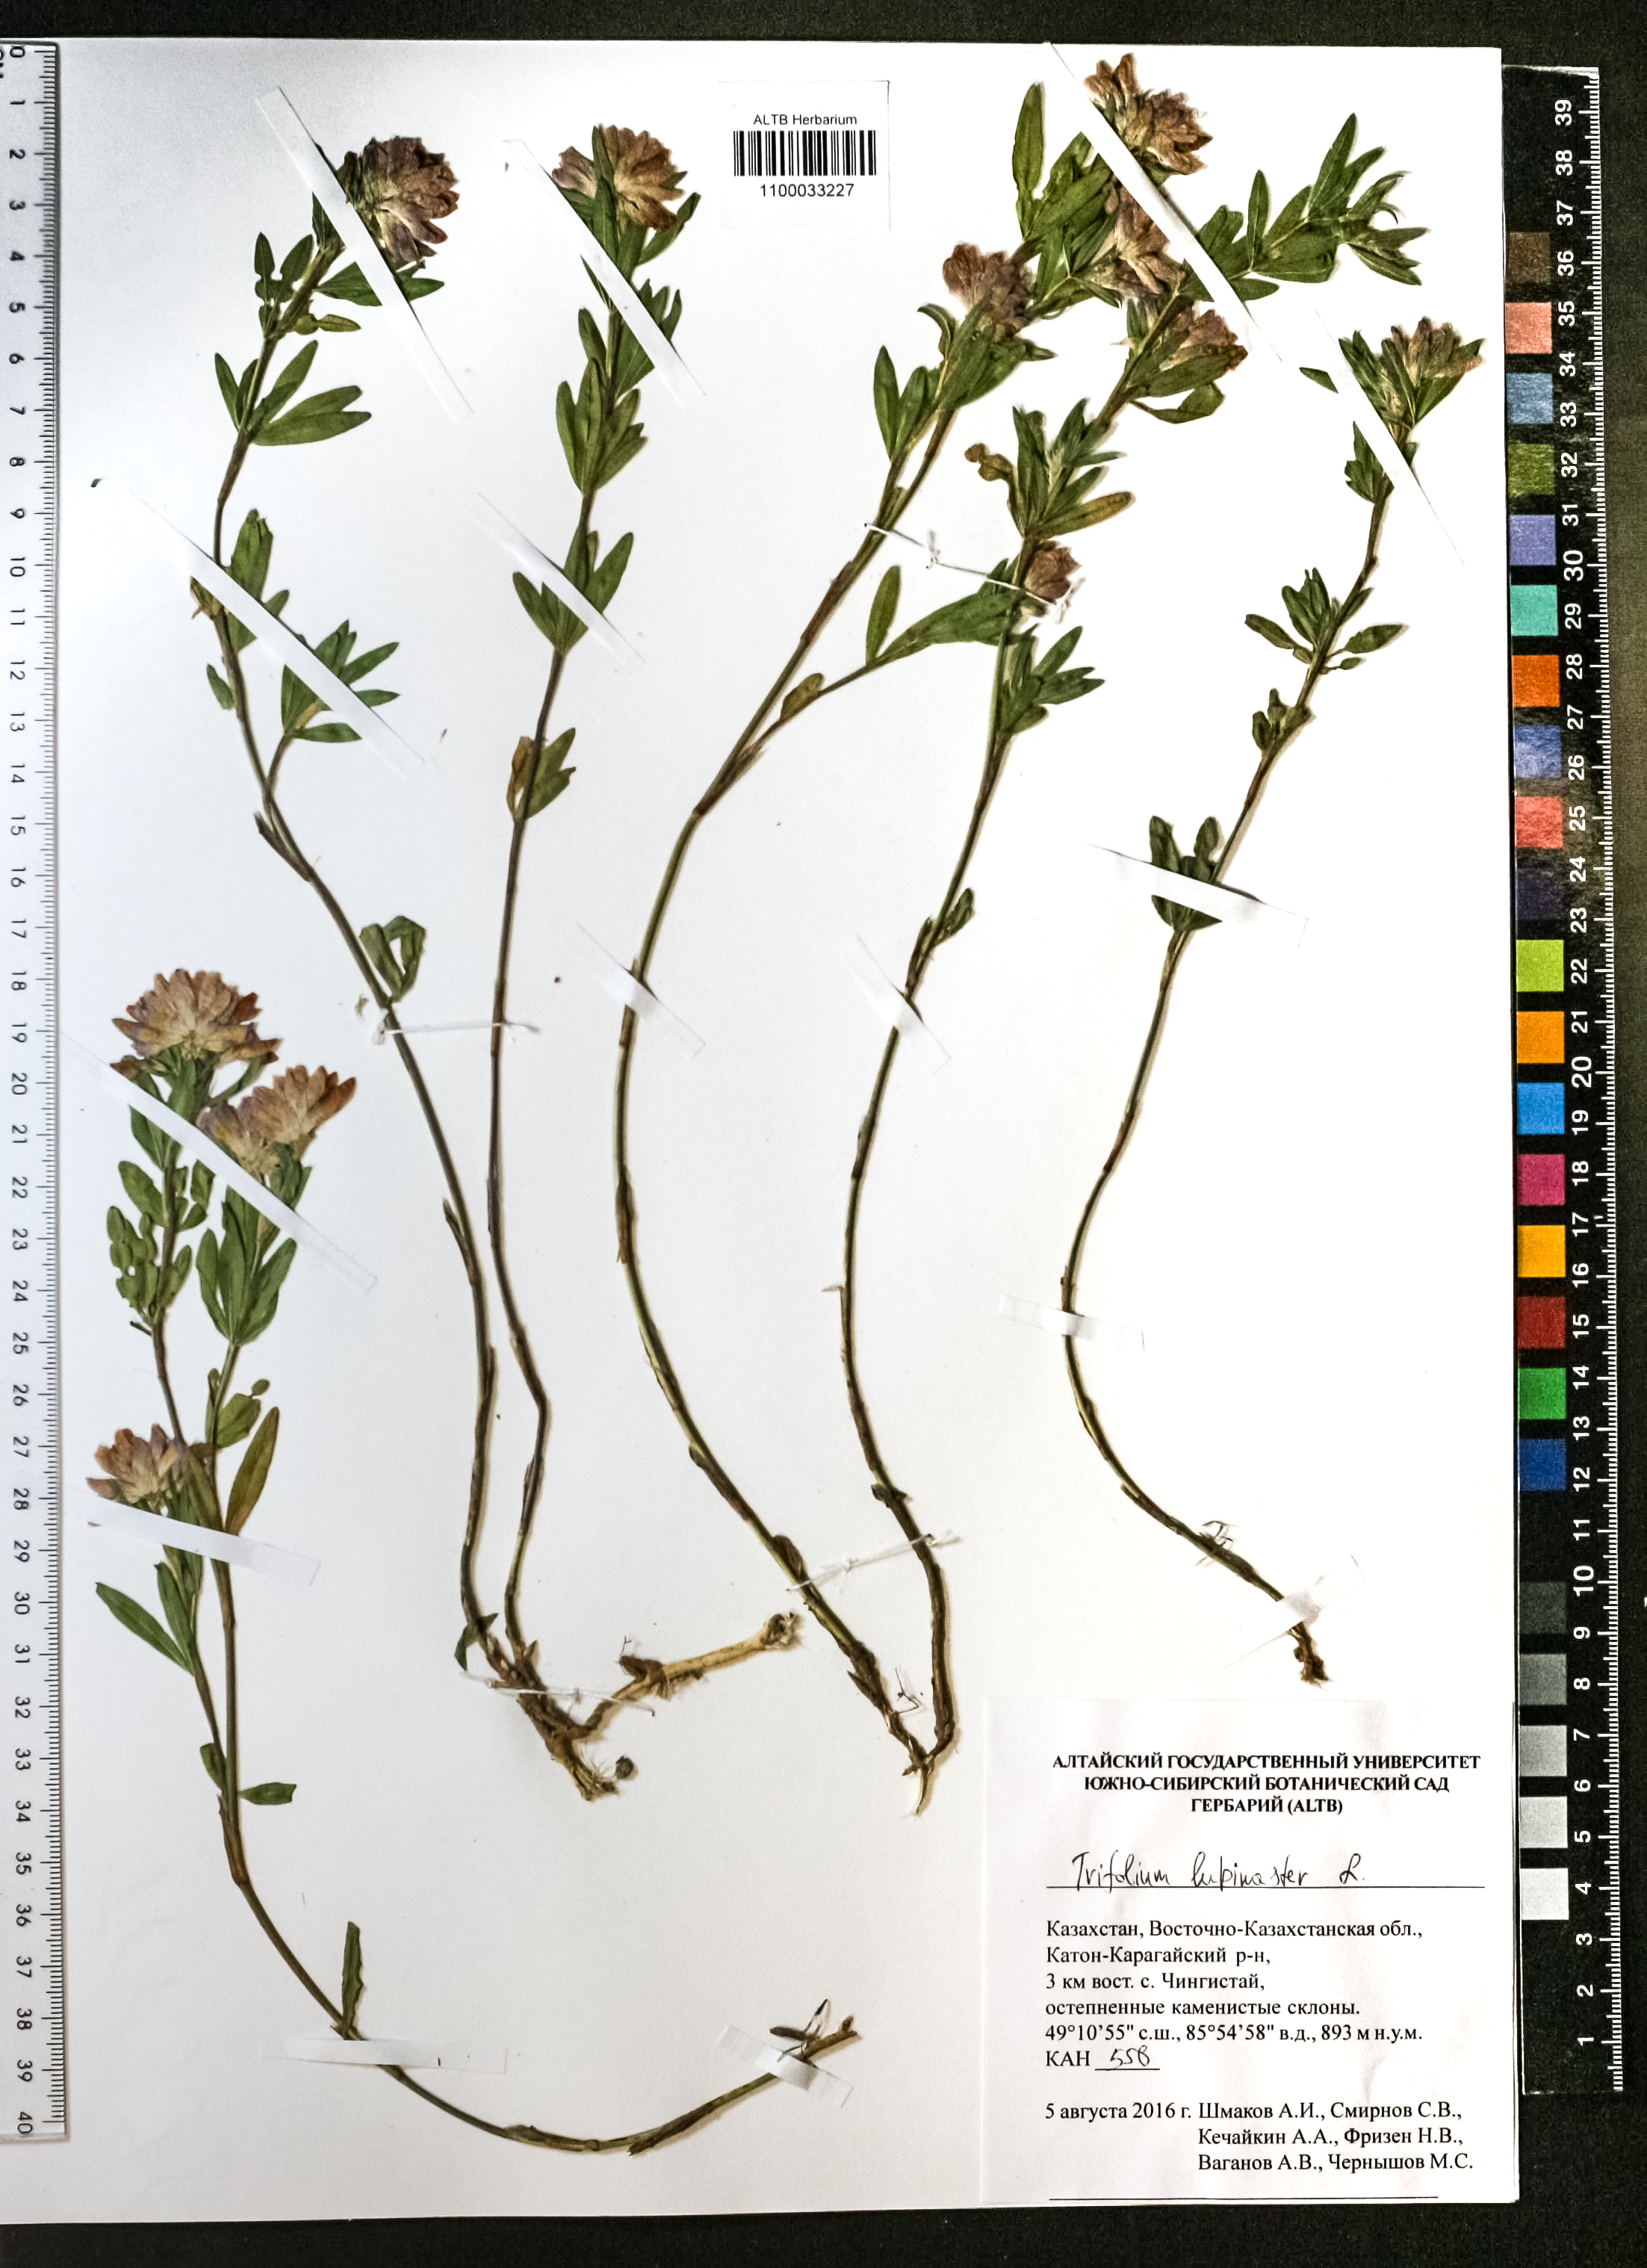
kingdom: Plantae
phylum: Tracheophyta
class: Magnoliopsida
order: Fabales
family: Fabaceae
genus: Trifolium
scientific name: Trifolium lupinaster
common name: Lupine clover
